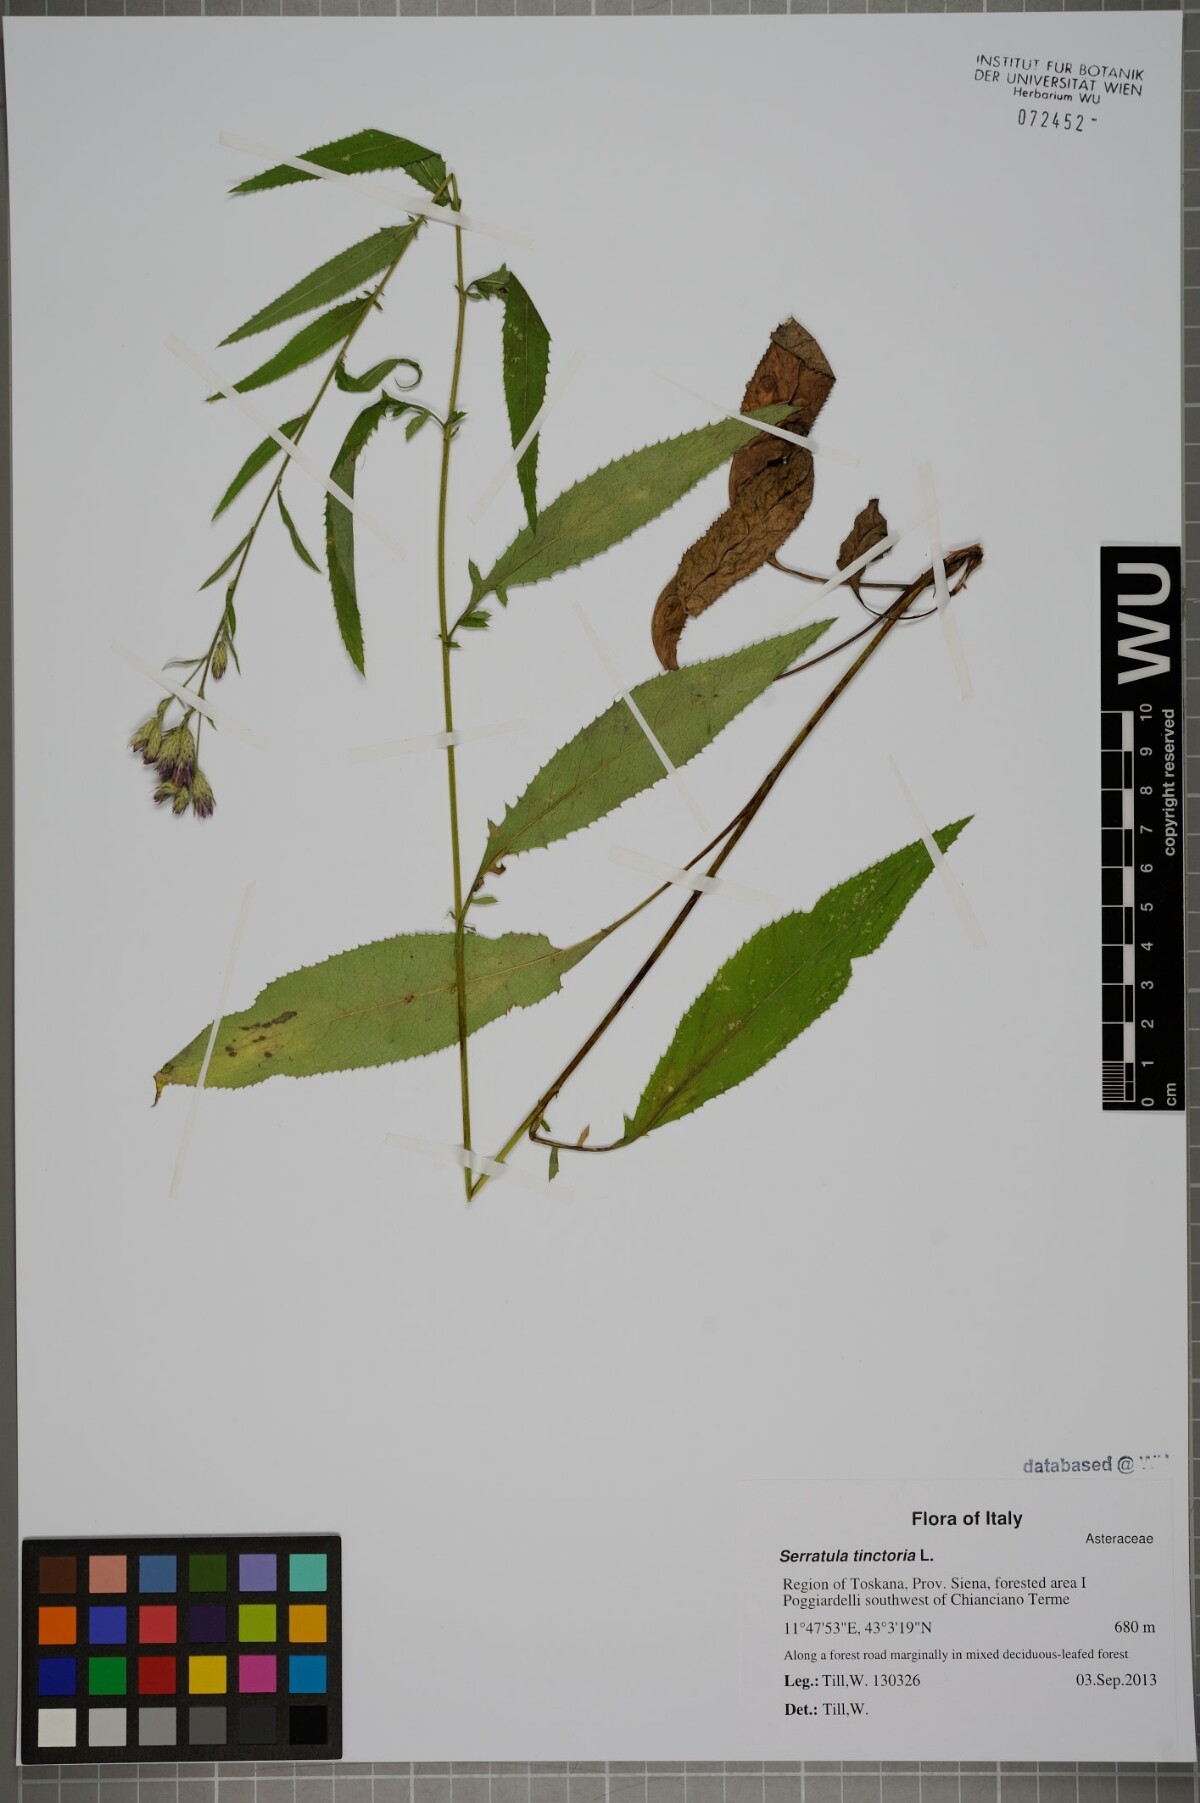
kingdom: Plantae
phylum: Tracheophyta
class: Magnoliopsida
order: Asterales
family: Asteraceae
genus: Serratula
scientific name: Serratula tinctoria
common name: Saw-wort
